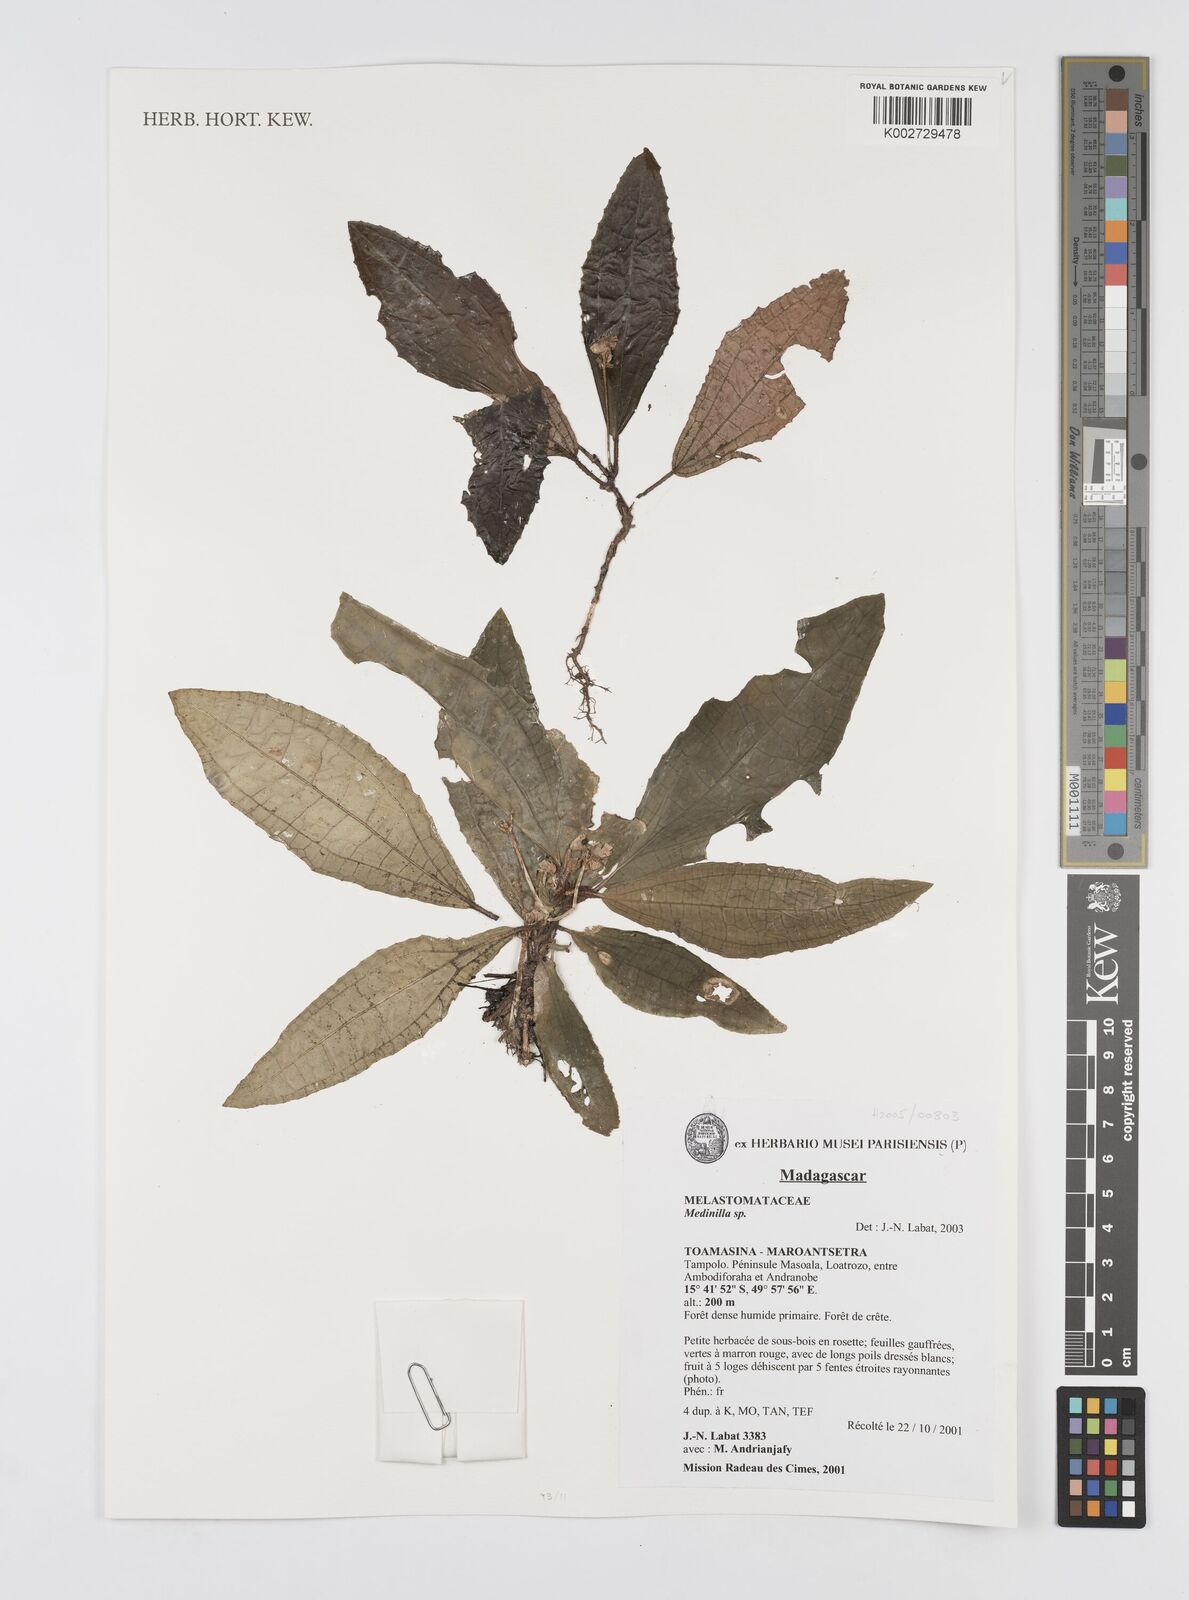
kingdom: Plantae
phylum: Tracheophyta
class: Magnoliopsida
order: Myrtales
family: Melastomataceae
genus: Medinilla
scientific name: Medinilla
